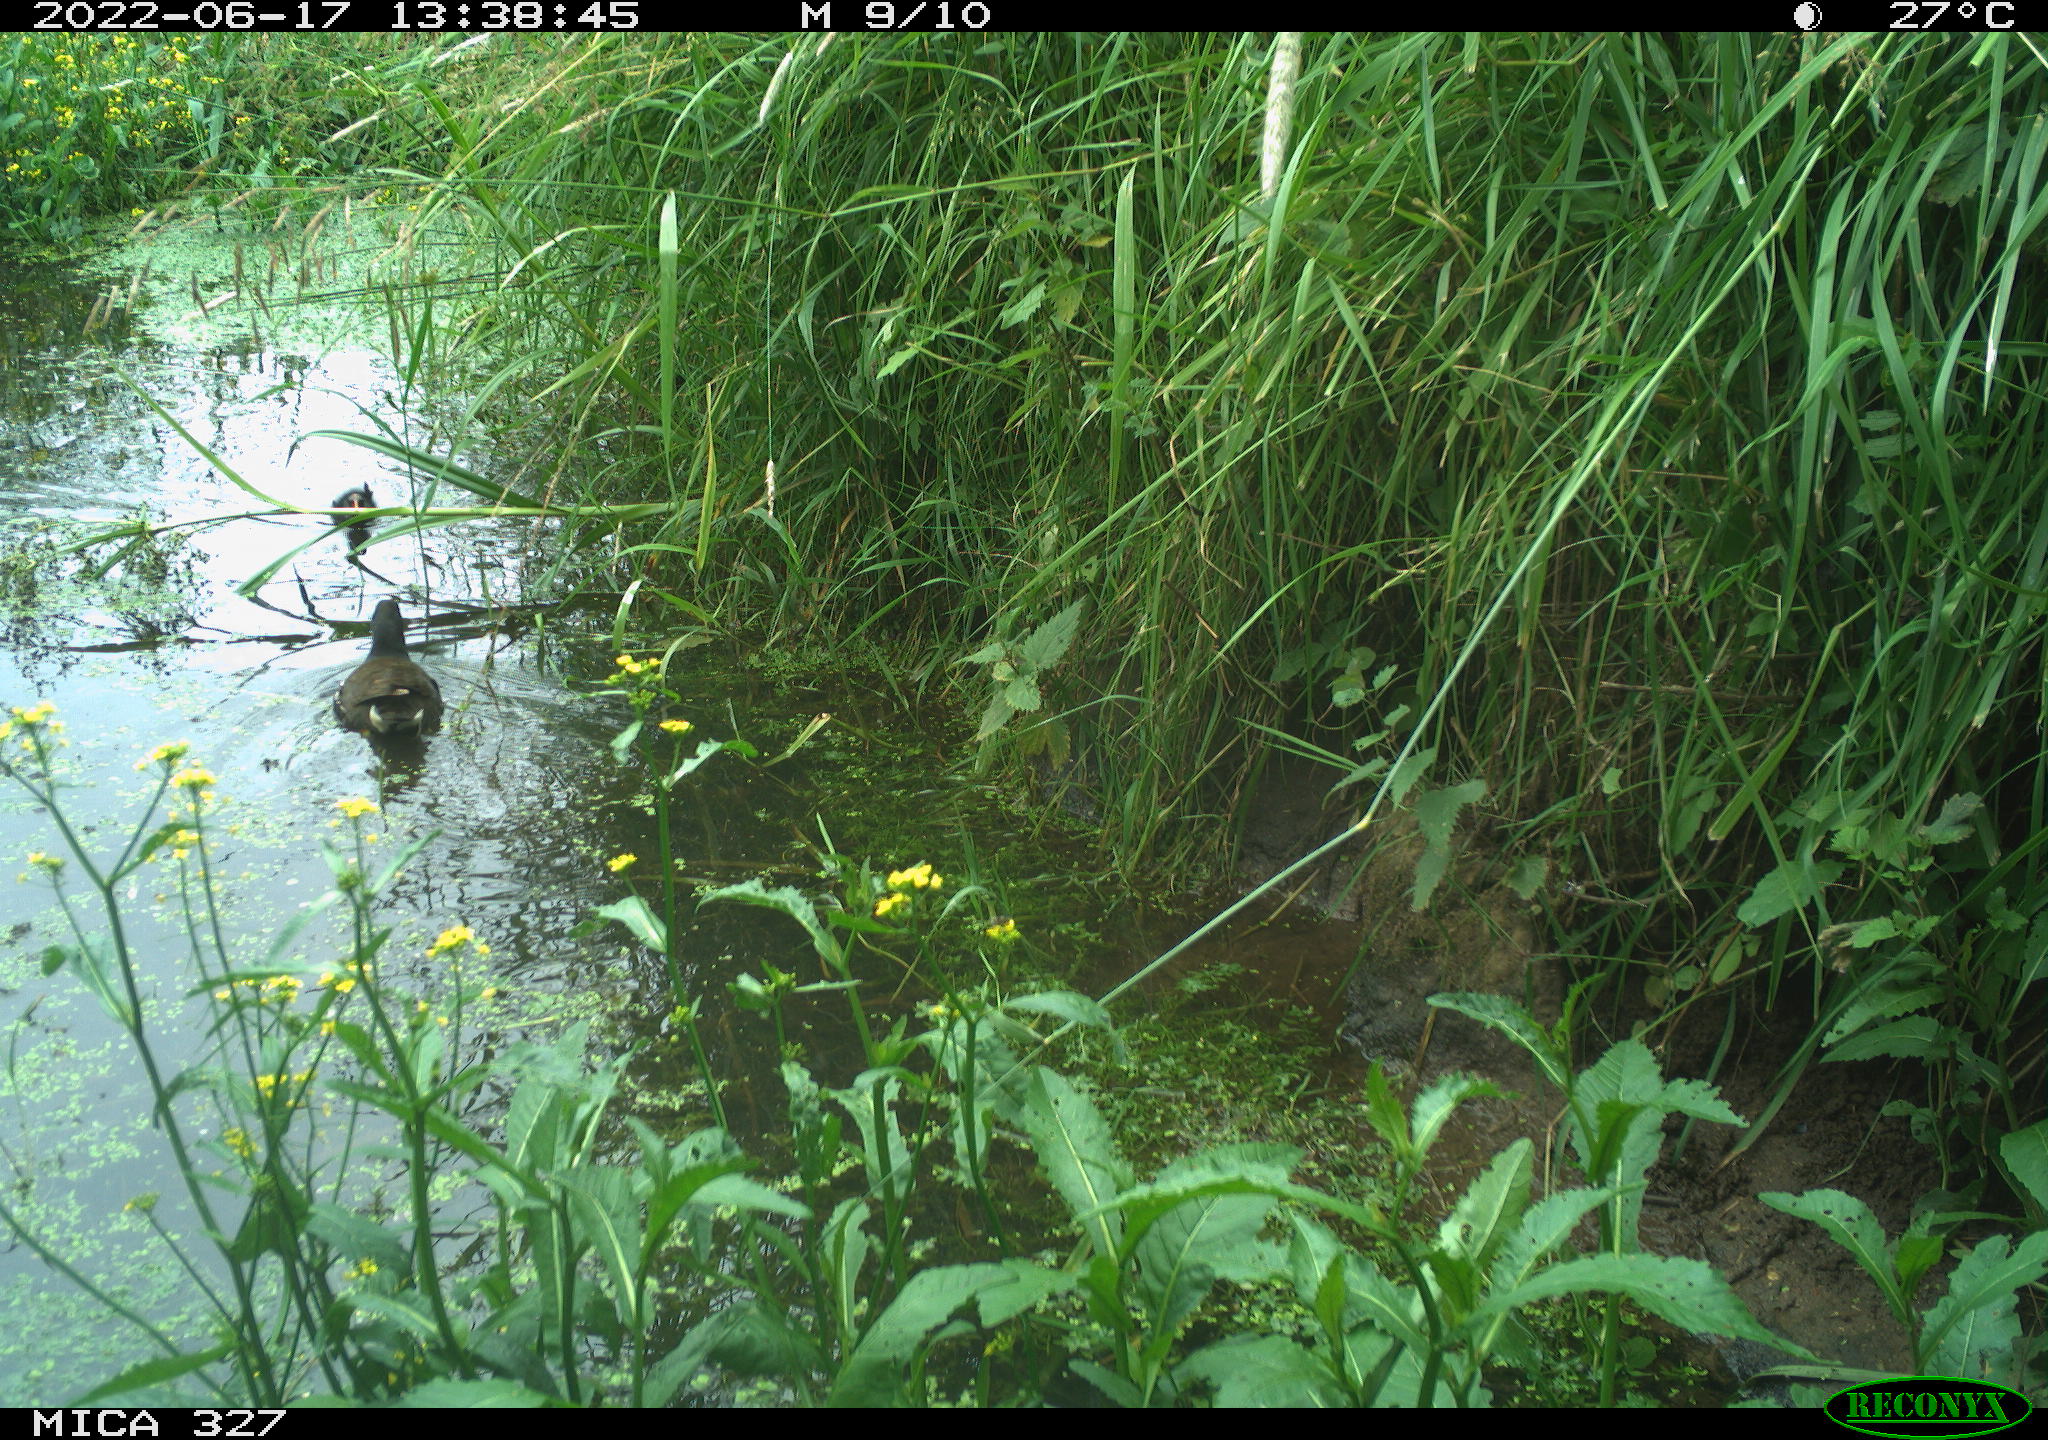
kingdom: Animalia
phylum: Chordata
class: Aves
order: Gruiformes
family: Rallidae
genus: Gallinula
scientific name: Gallinula chloropus
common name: Common moorhen
